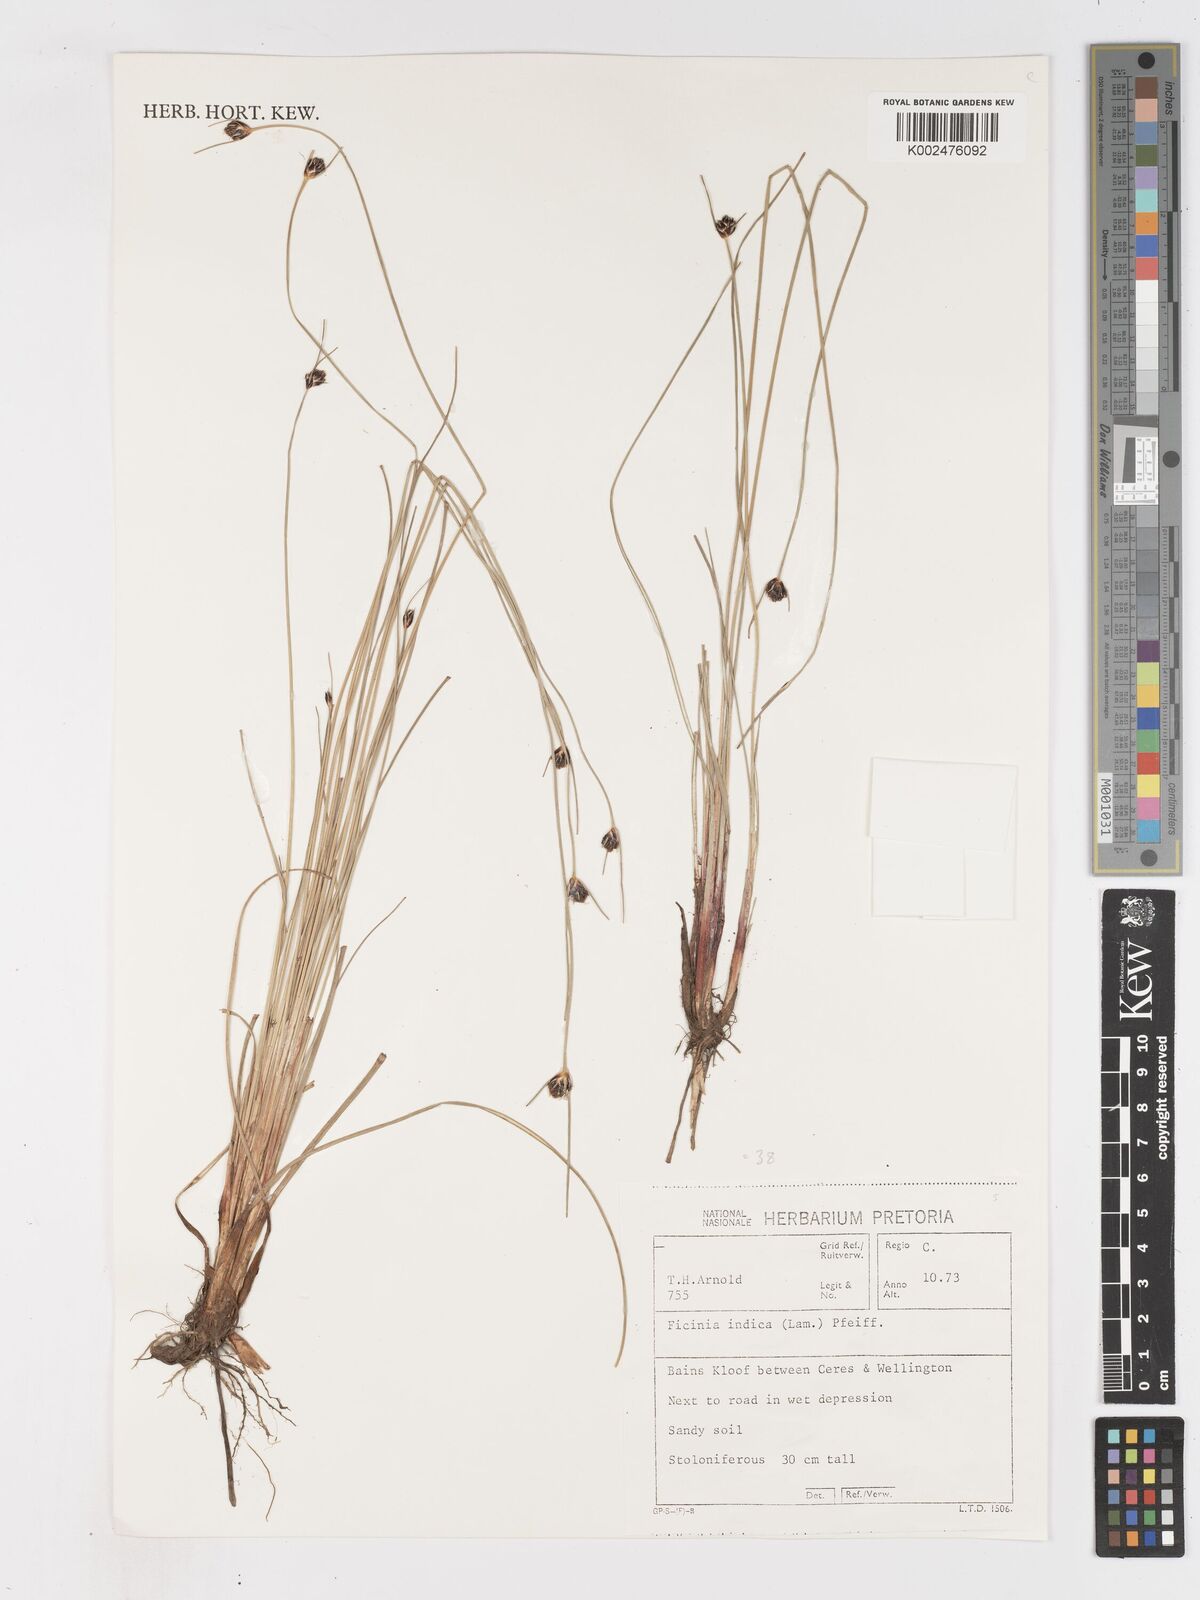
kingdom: Plantae
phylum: Tracheophyta
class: Liliopsida
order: Poales
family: Cyperaceae
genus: Ficinia
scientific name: Ficinia indica
